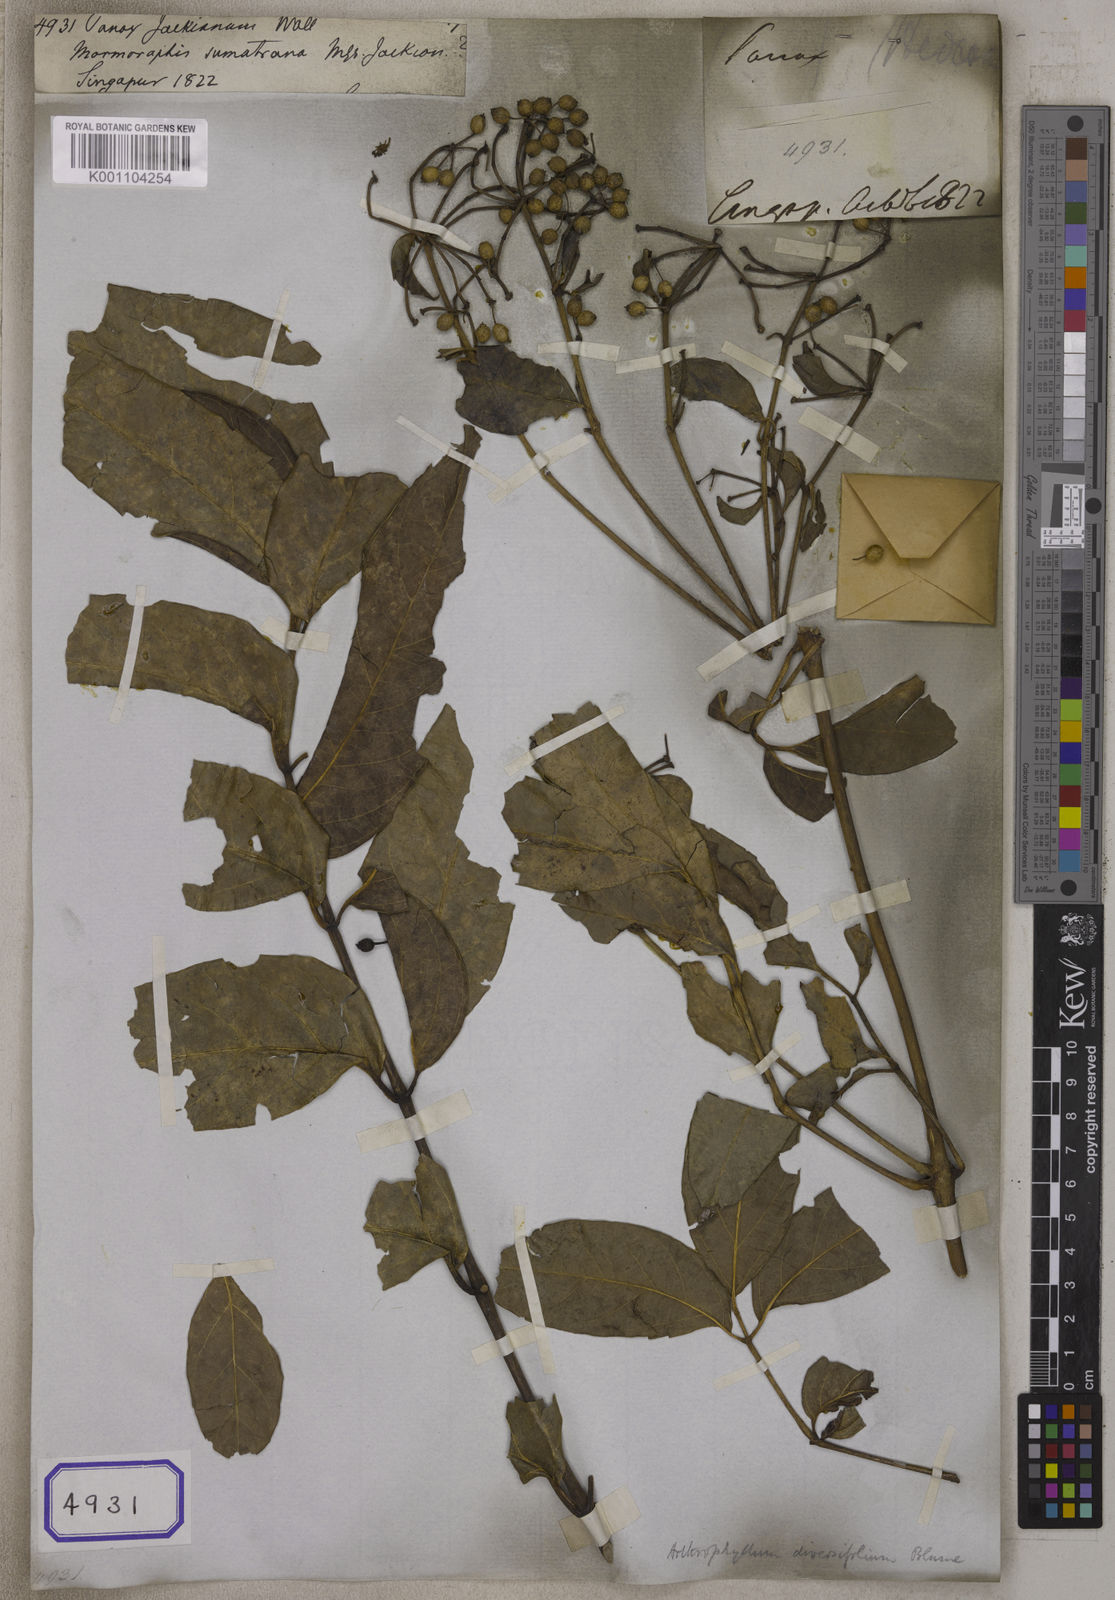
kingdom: Plantae
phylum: Tracheophyta
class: Magnoliopsida
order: Apiales
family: Araliaceae
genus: Polyscias
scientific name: Polyscias jackiana
